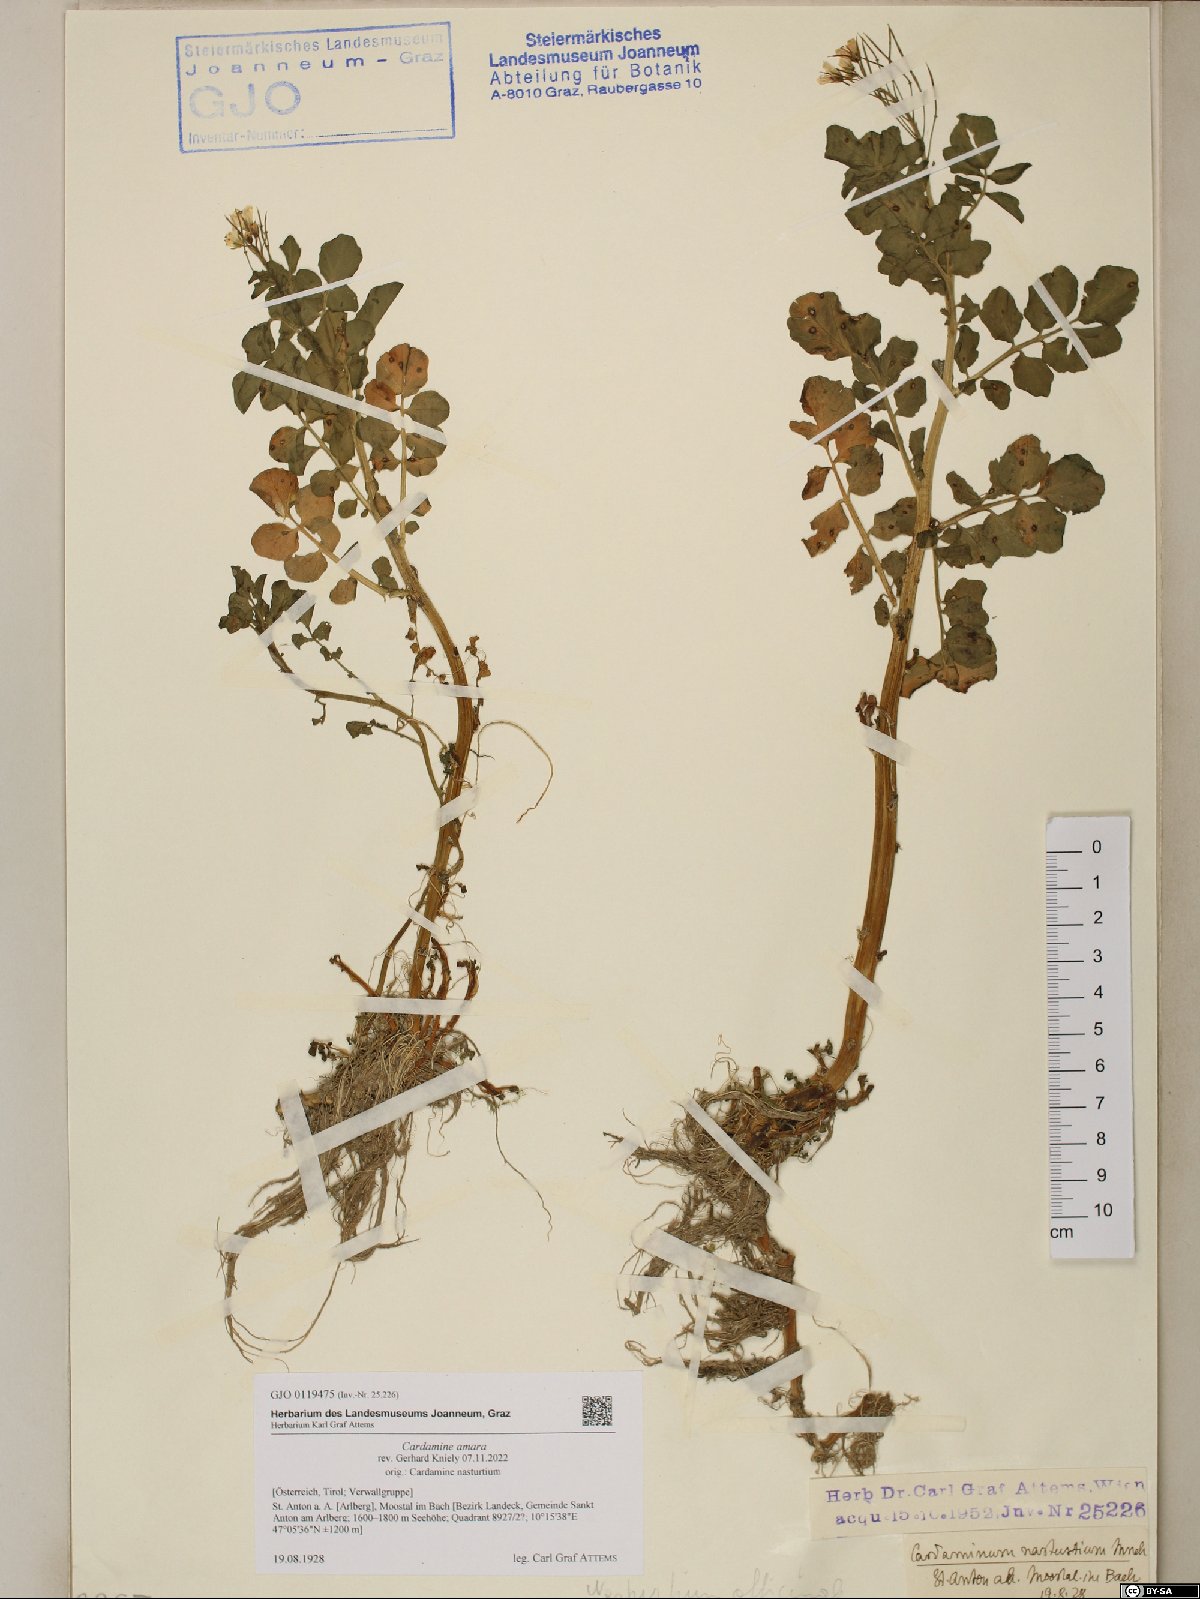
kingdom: Plantae
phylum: Tracheophyta
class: Magnoliopsida
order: Brassicales
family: Brassicaceae
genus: Cardamine
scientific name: Cardamine amara
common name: Large bitter-cress
